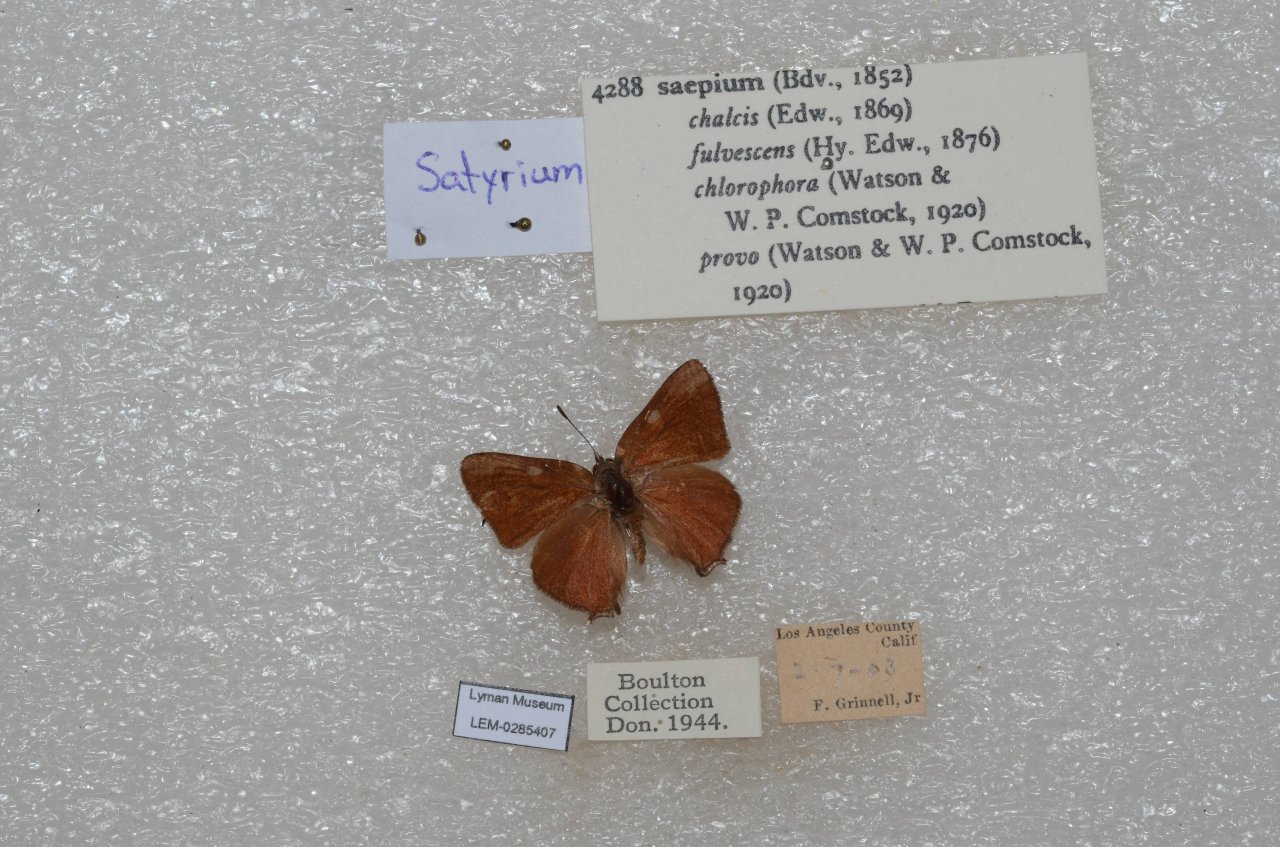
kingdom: Animalia
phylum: Arthropoda
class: Insecta
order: Lepidoptera
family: Lycaenidae
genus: Strymon
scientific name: Strymon saepium
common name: Hedgerow Hairstreak
